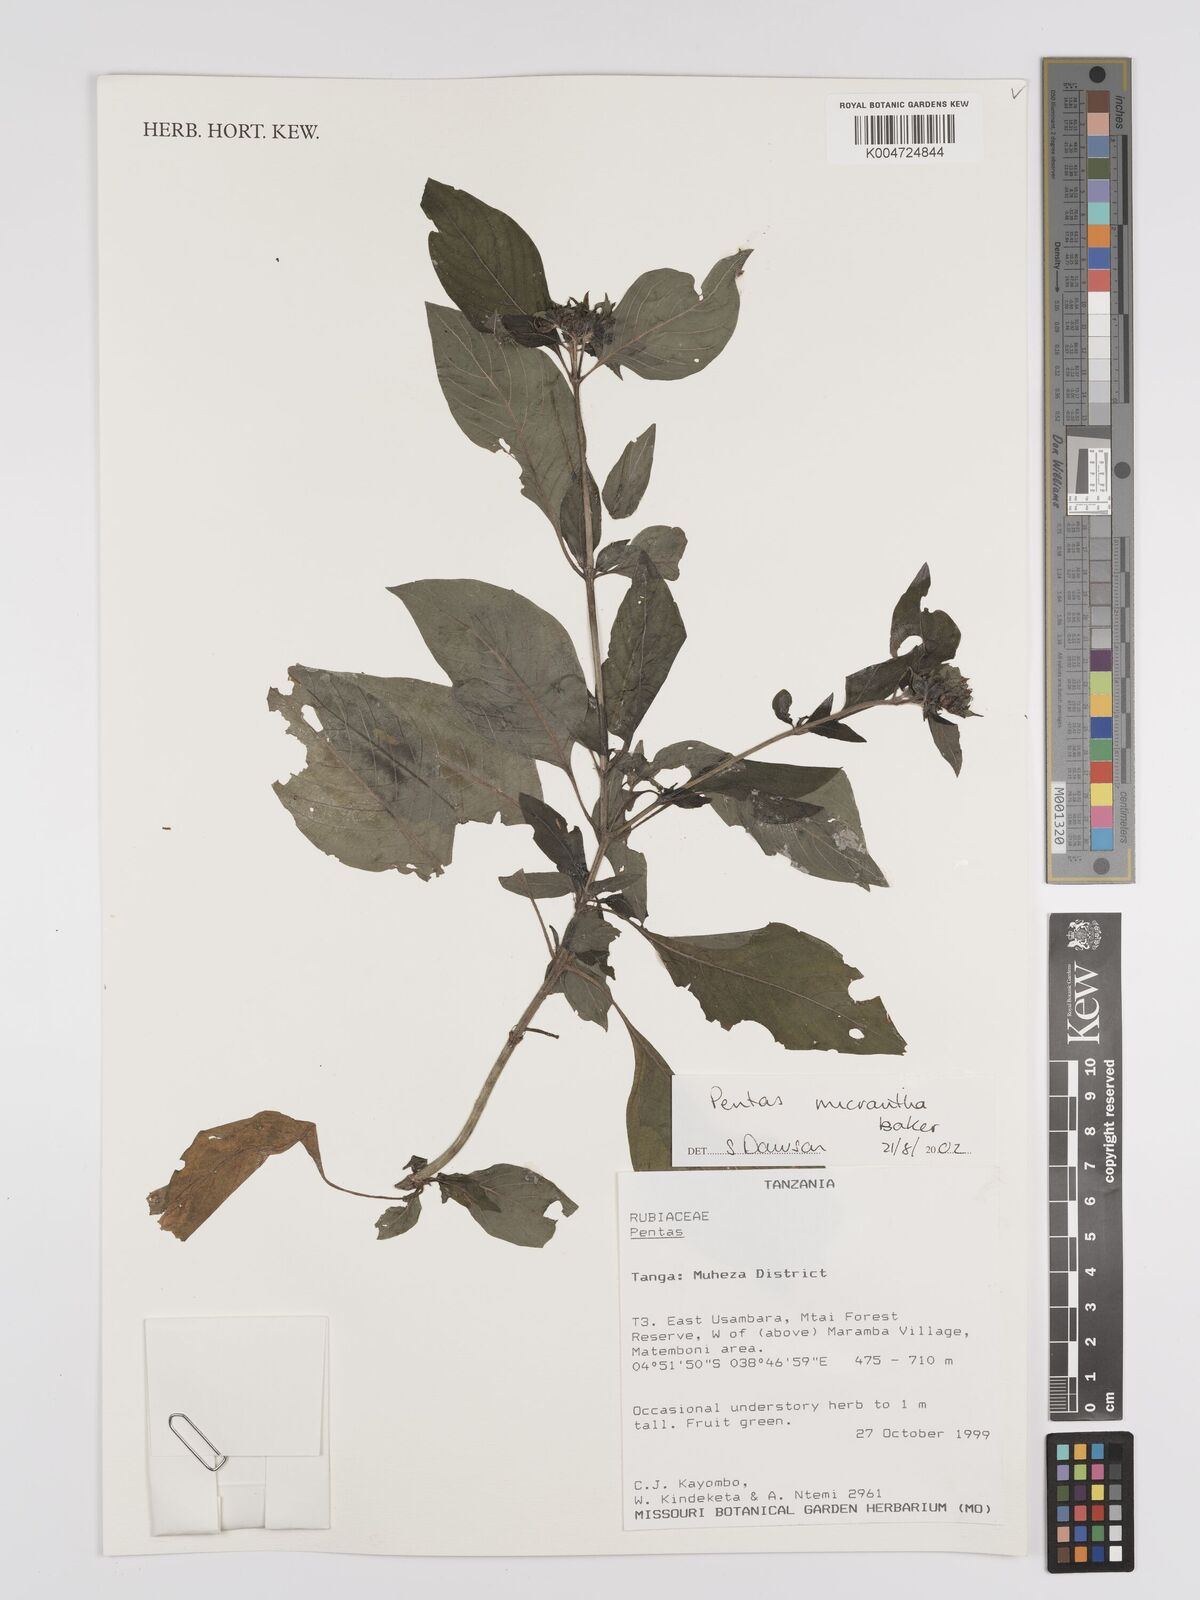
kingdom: Plantae
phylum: Tracheophyta
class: Magnoliopsida
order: Gentianales
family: Rubiaceae
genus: Pentas
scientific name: Pentas micrantha
